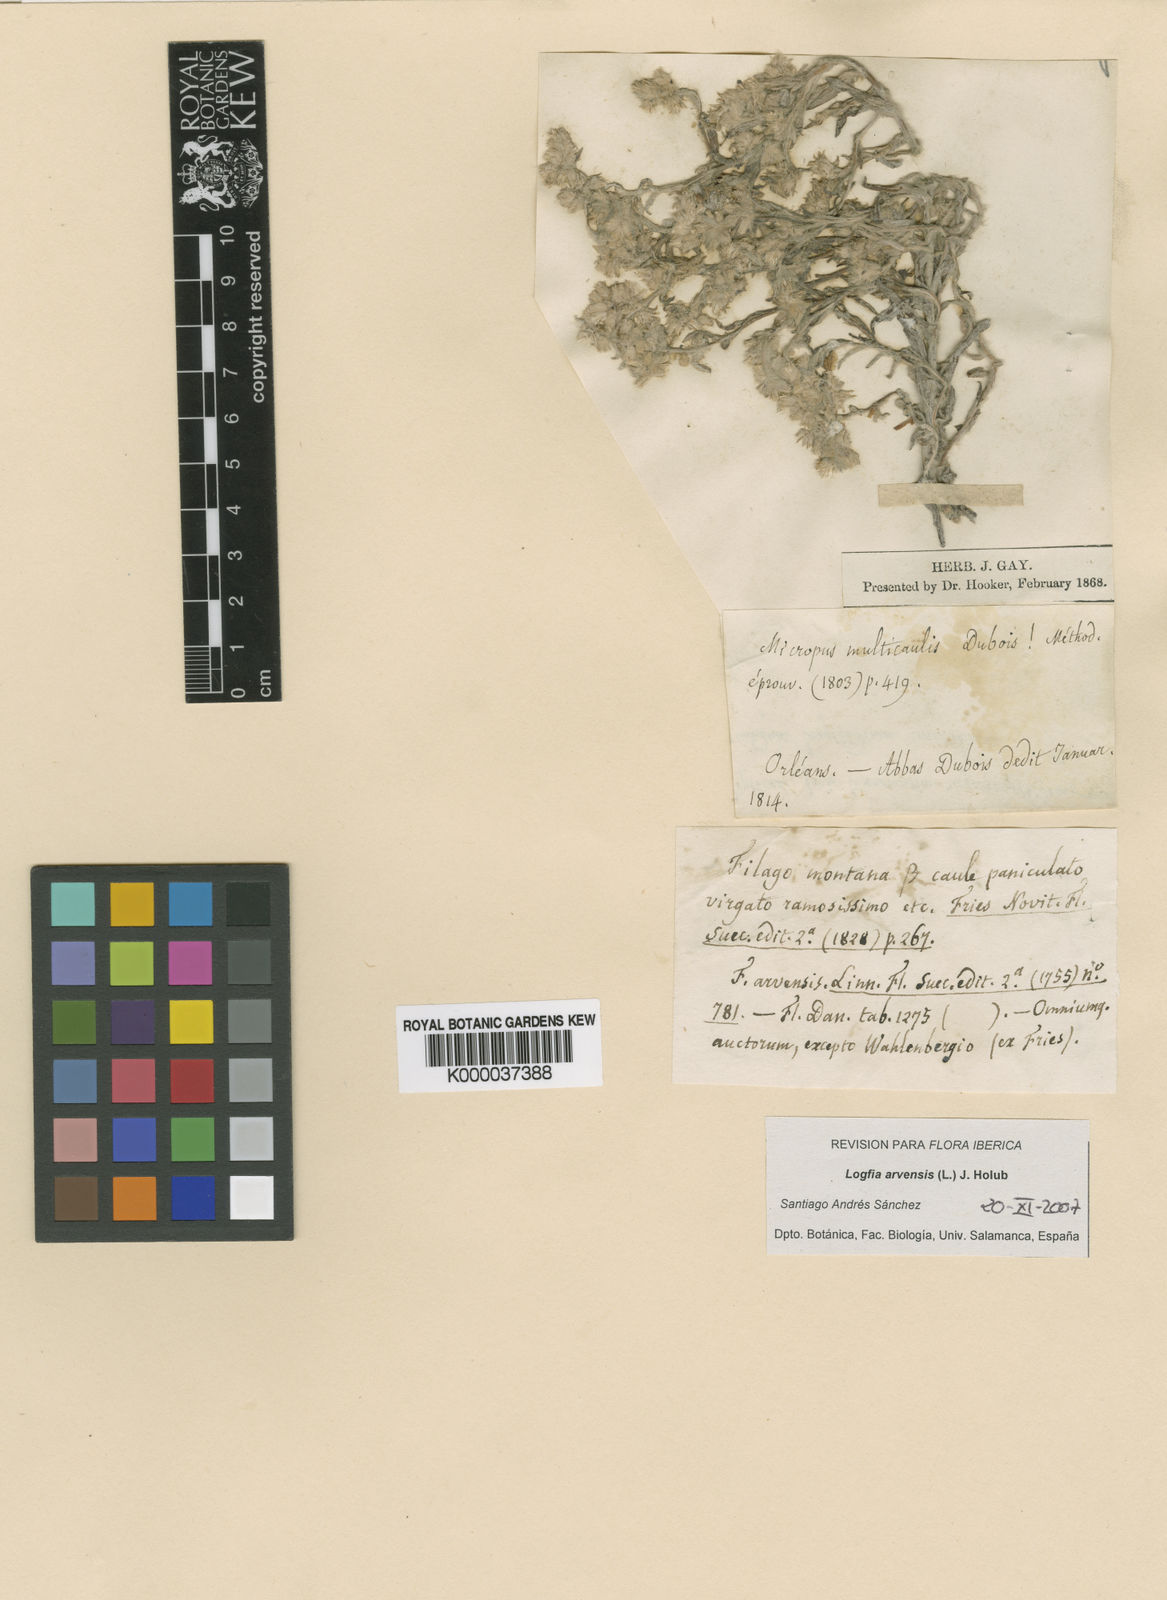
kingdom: Plantae
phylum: Tracheophyta
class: Magnoliopsida
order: Asterales
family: Asteraceae
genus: Filago
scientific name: Filago arvensis
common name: Field cudweed
